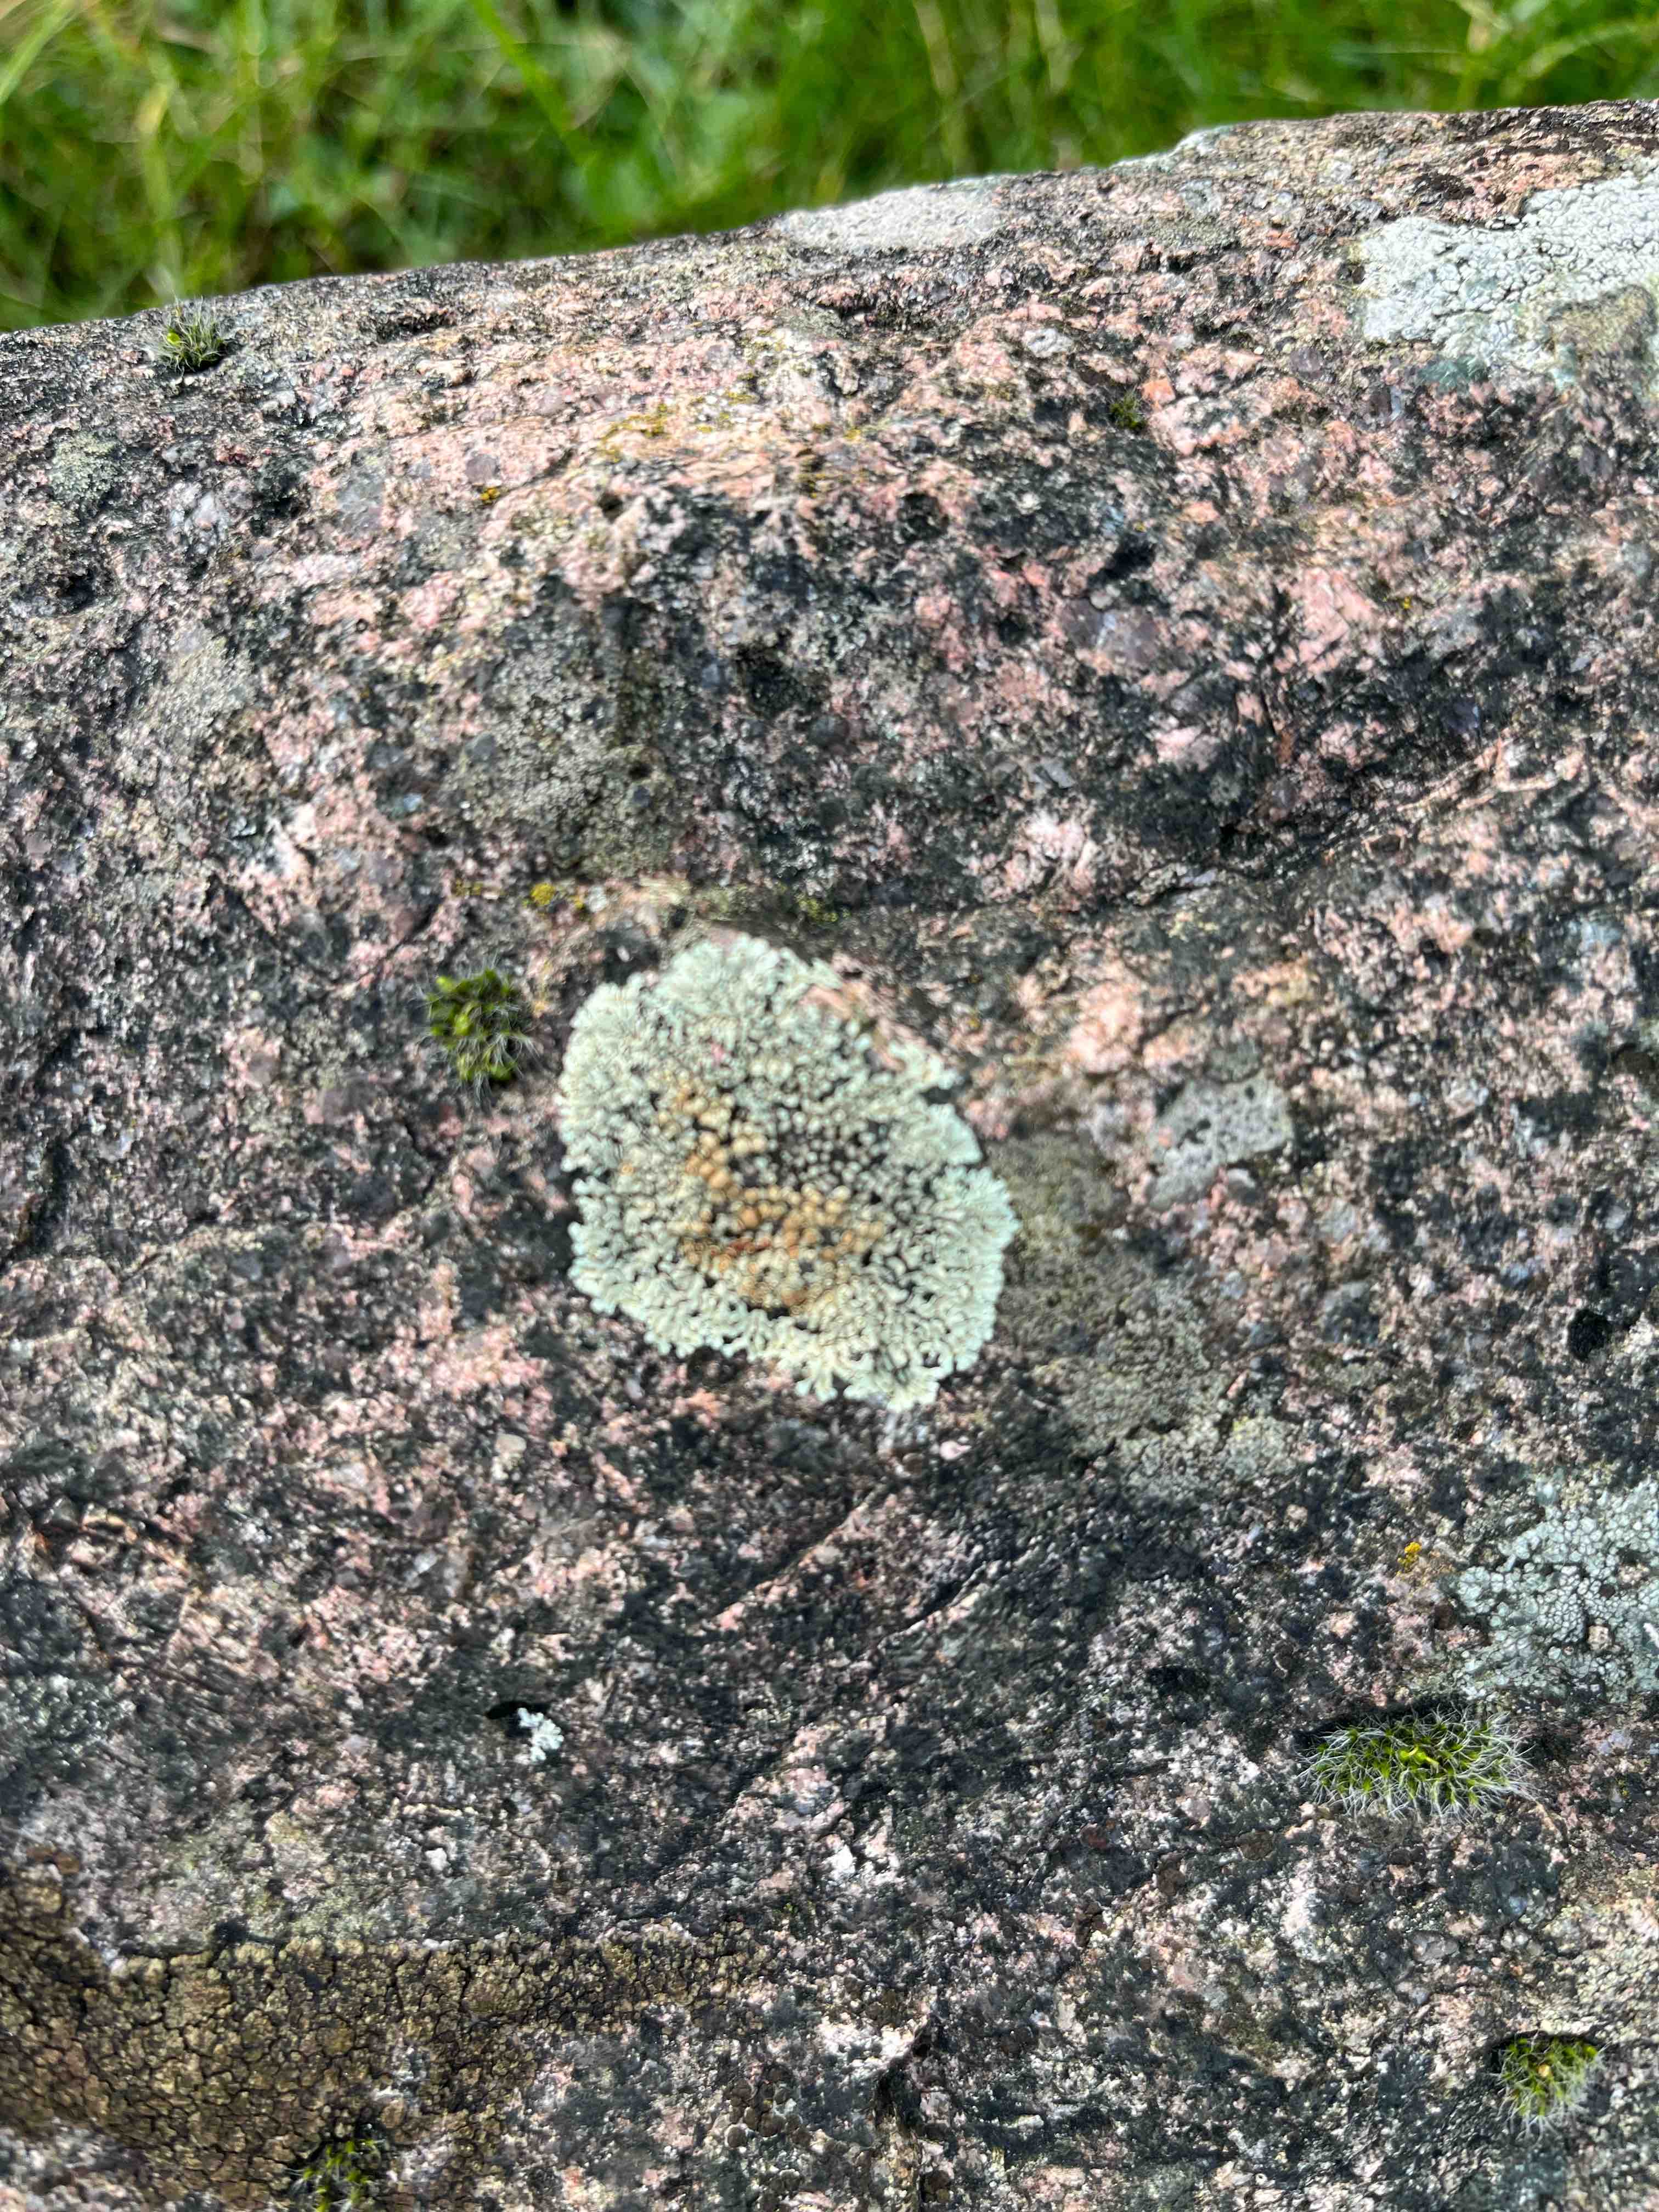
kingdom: Fungi
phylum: Ascomycota
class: Lecanoromycetes
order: Lecanorales
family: Lecanoraceae
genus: Protoparmeliopsis
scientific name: Protoparmeliopsis muralis
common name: randfliget kantskivelav
